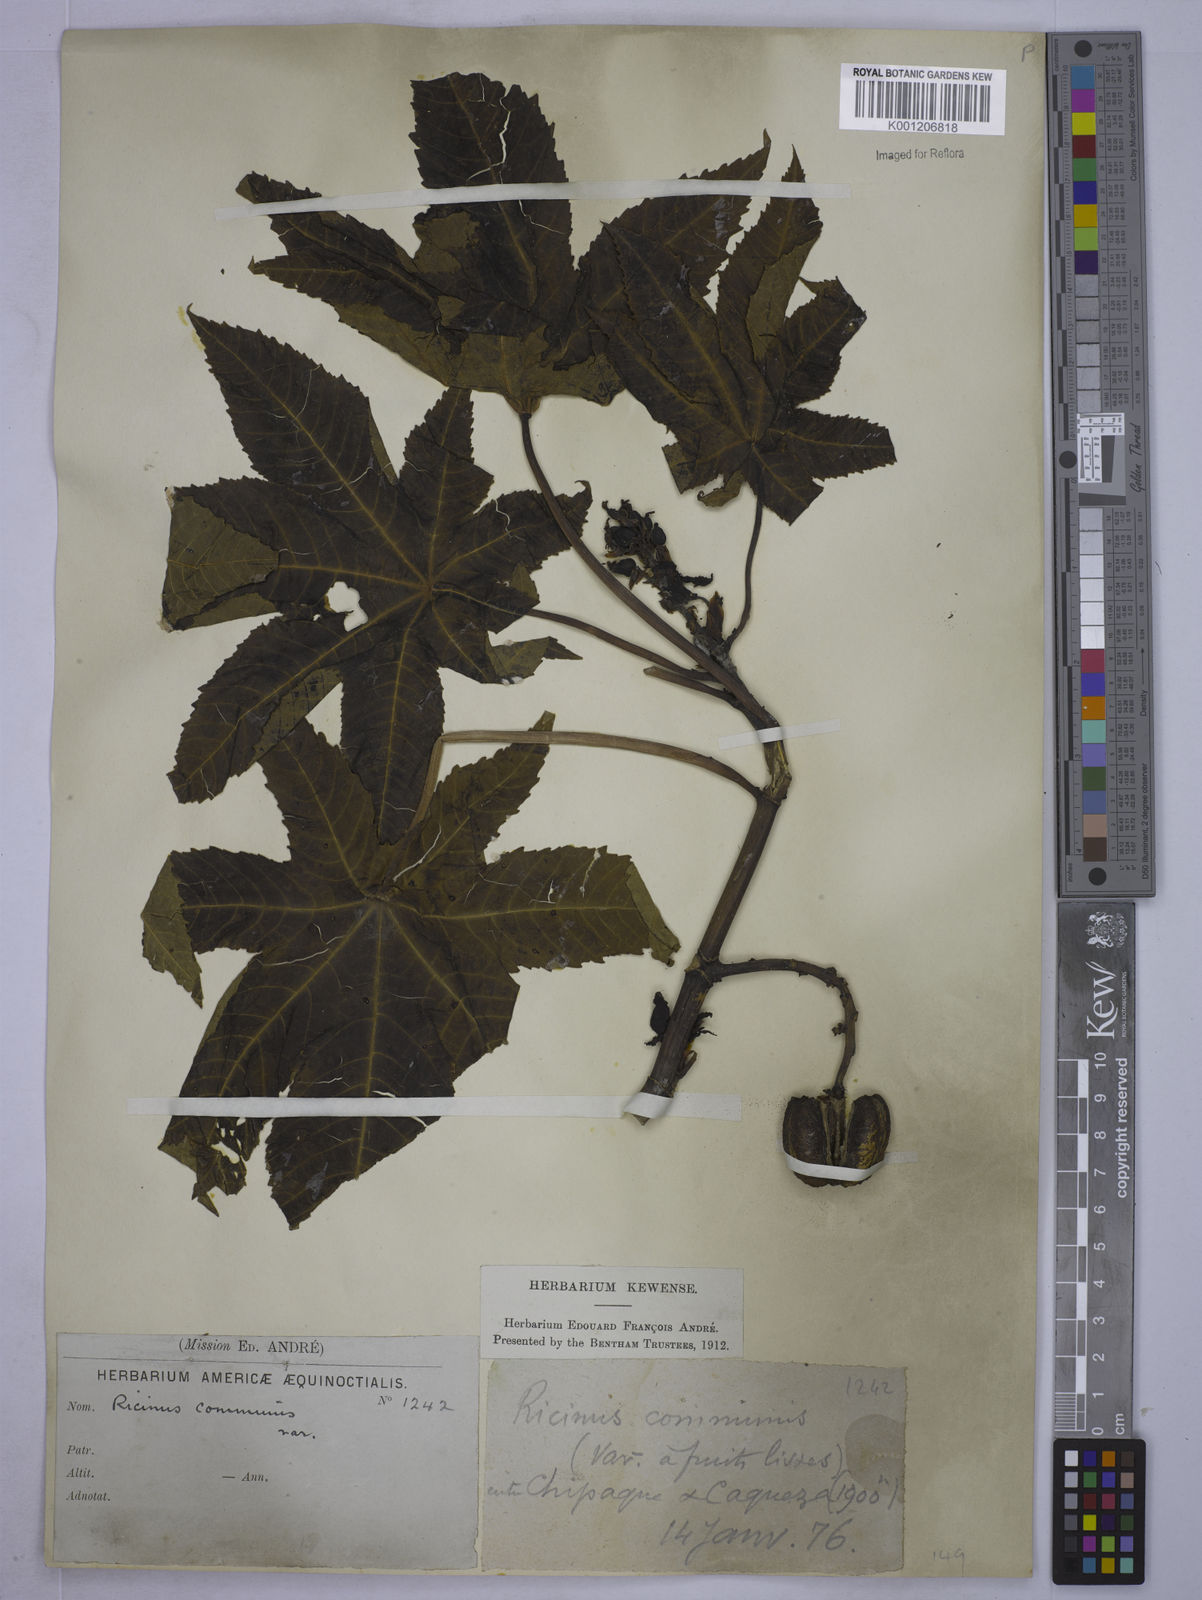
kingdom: Plantae
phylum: Tracheophyta
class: Magnoliopsida
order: Malpighiales
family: Euphorbiaceae
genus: Ricinus
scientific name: Ricinus communis
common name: Castor-oil-plant
